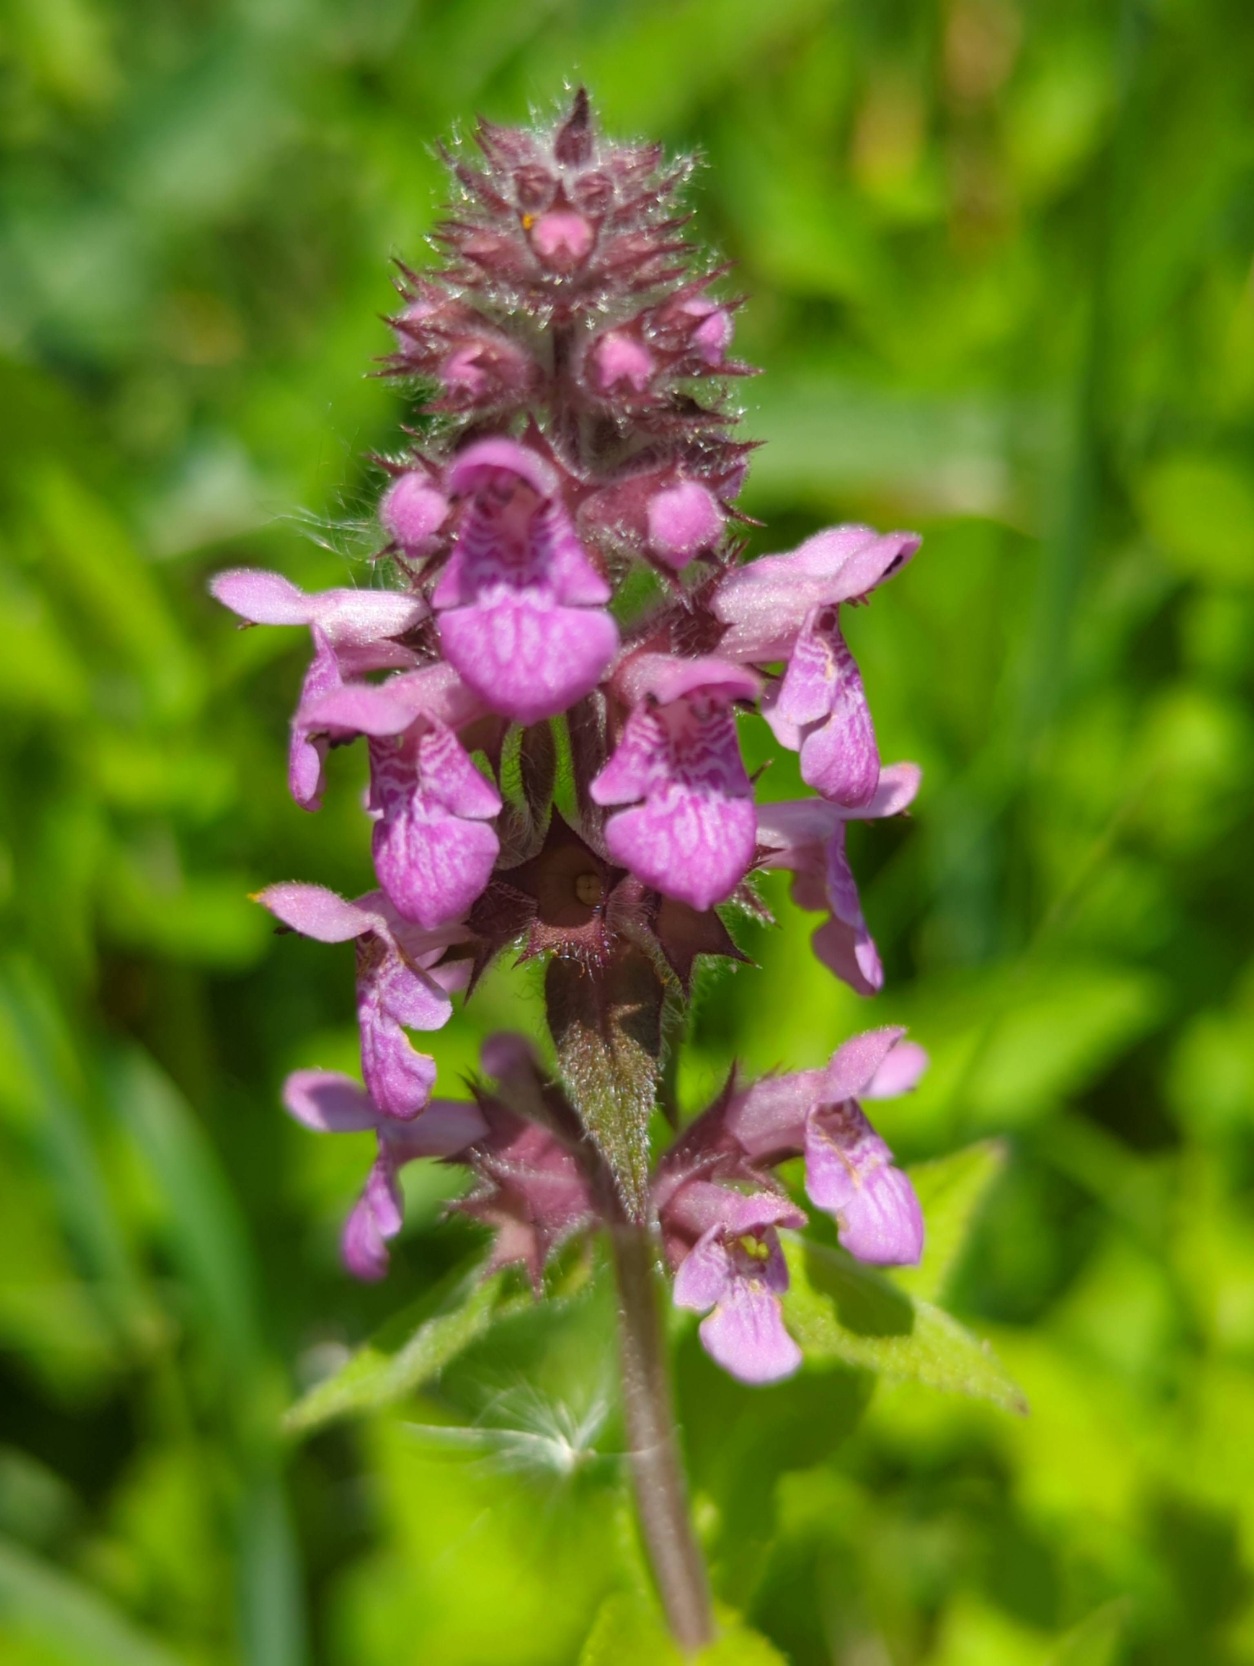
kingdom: Plantae
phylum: Tracheophyta
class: Magnoliopsida
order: Lamiales
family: Lamiaceae
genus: Stachys
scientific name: Stachys palustris
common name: Kær-galtetand
